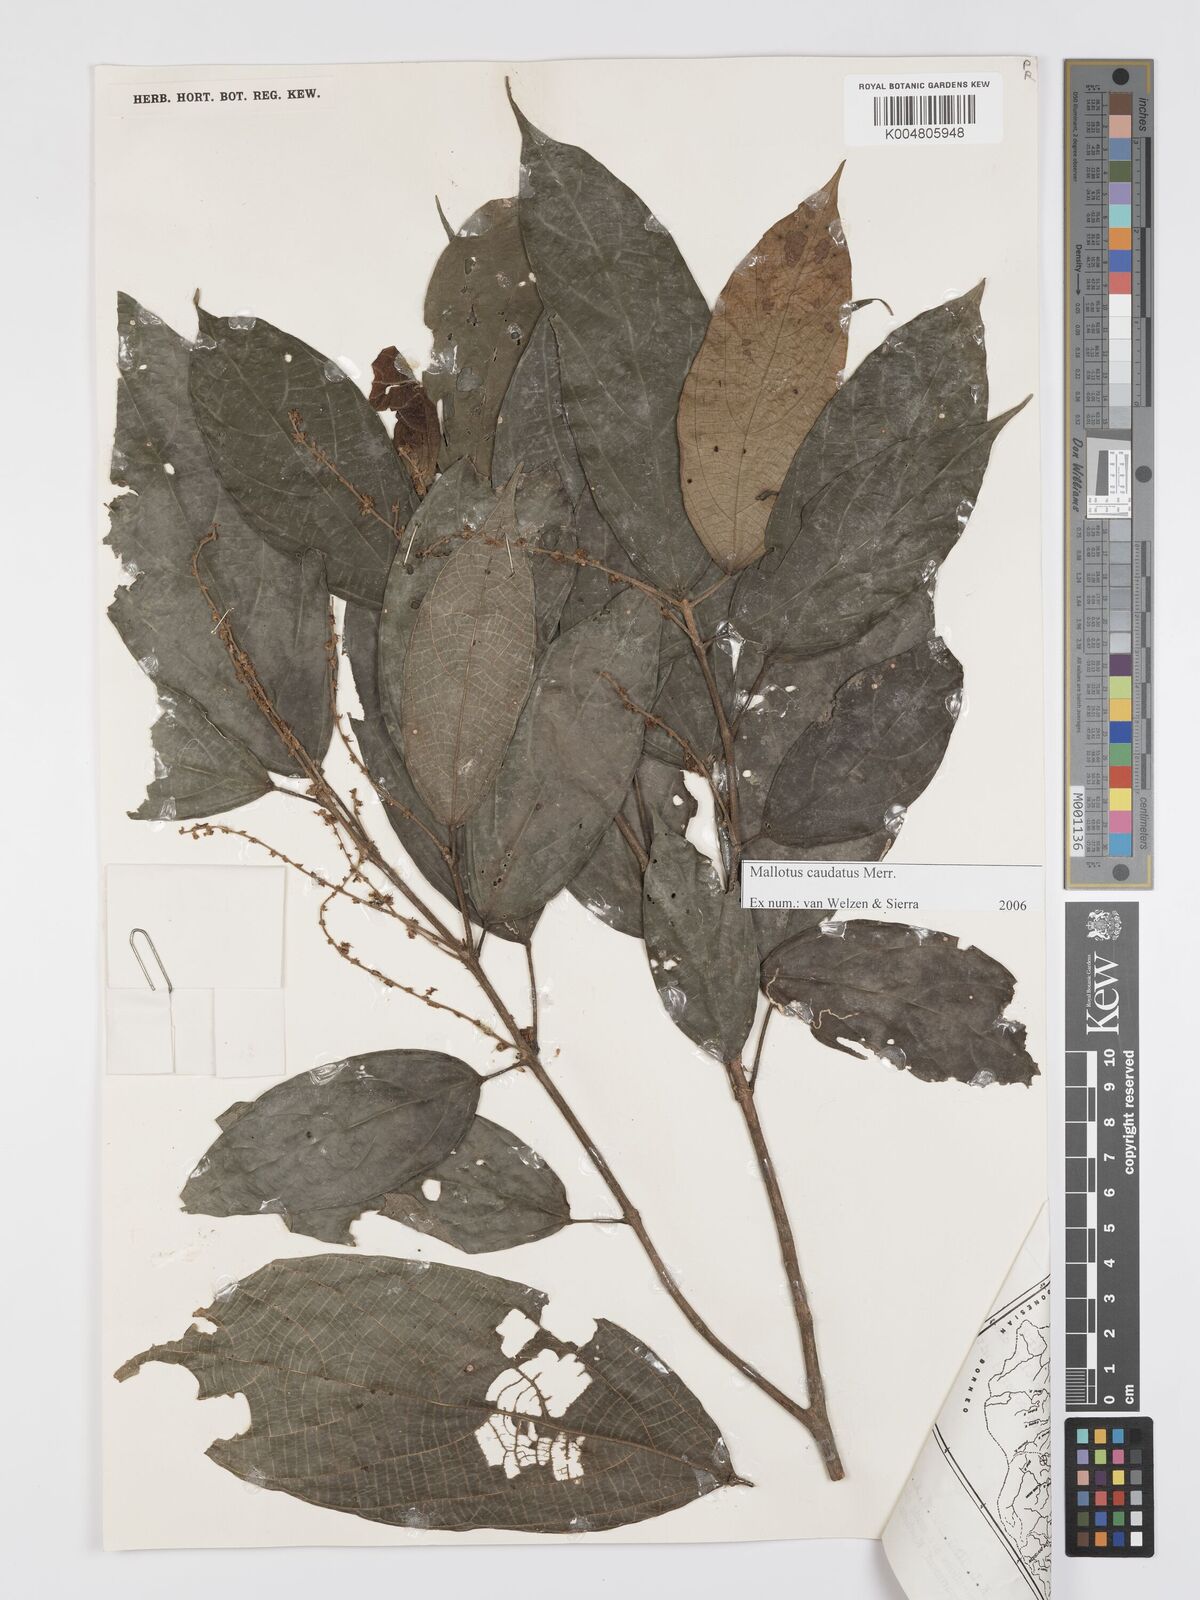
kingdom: Plantae
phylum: Tracheophyta
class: Magnoliopsida
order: Malpighiales
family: Euphorbiaceae
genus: Mallotus
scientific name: Mallotus caudatus
